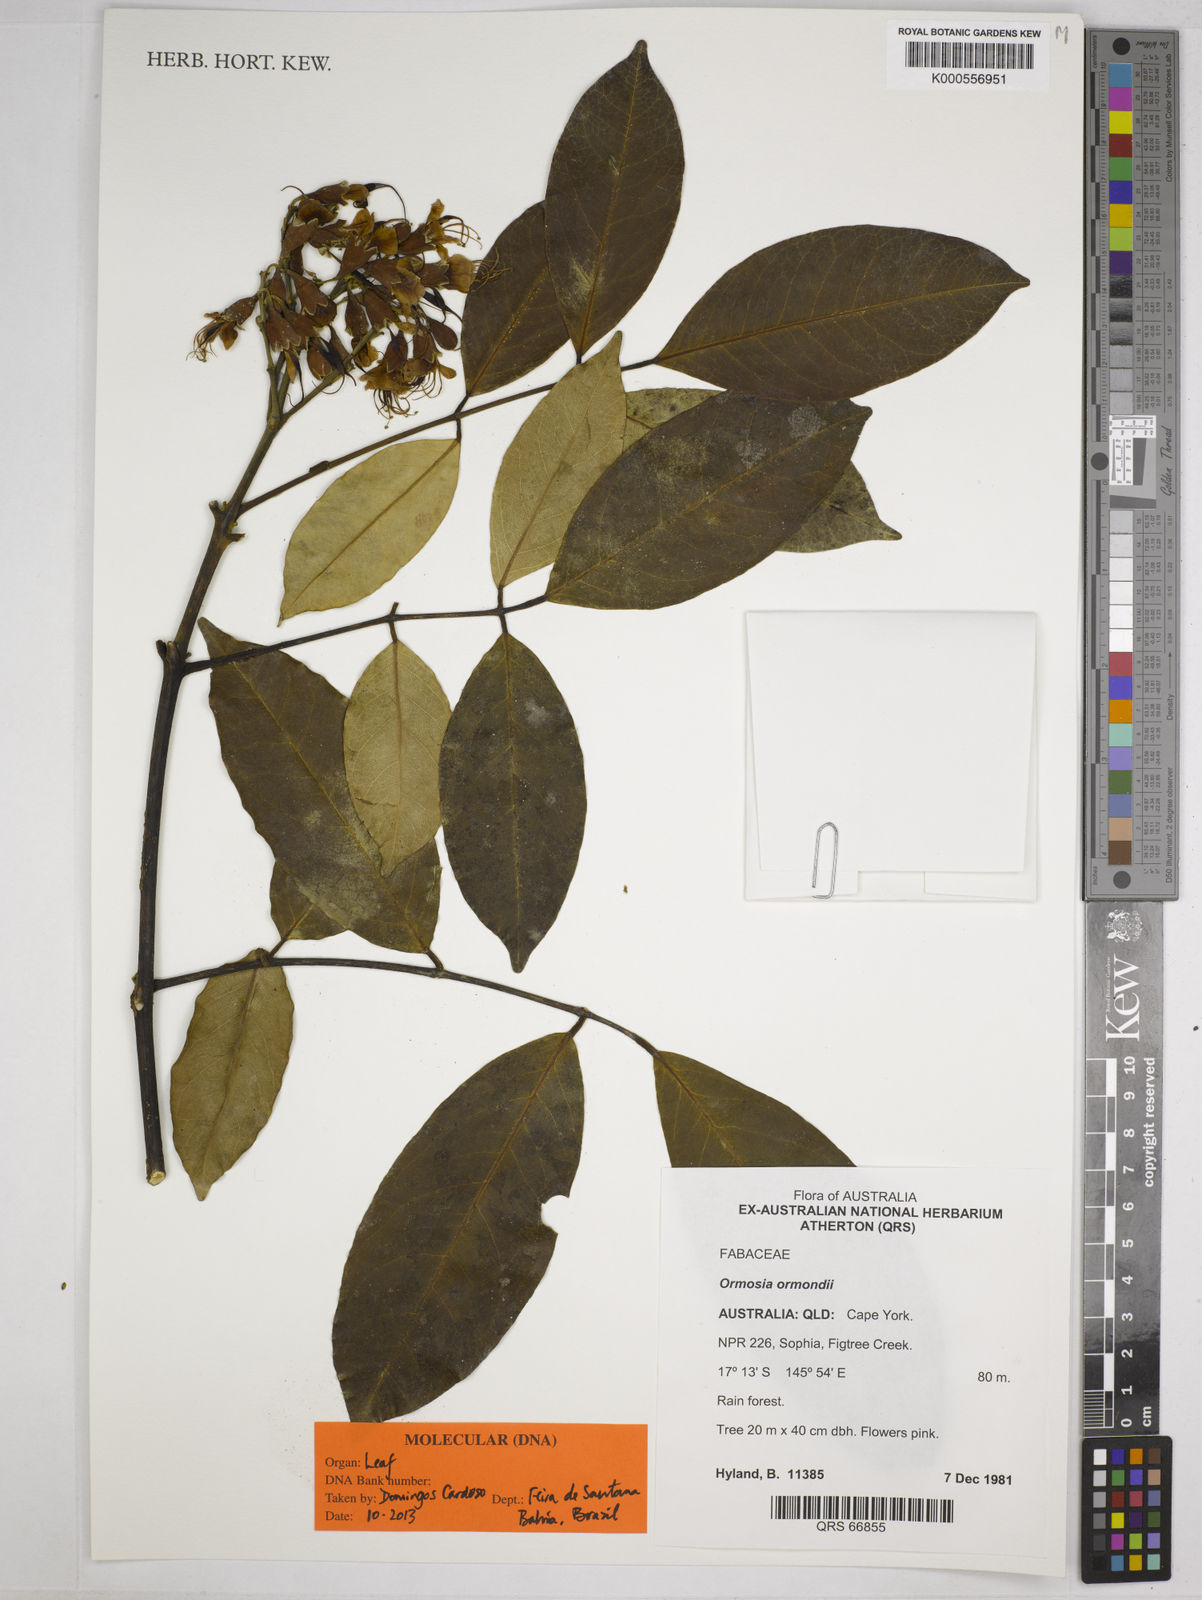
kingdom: Plantae
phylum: Tracheophyta
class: Magnoliopsida
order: Fabales
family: Fabaceae
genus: Ormosia
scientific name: Ormosia
